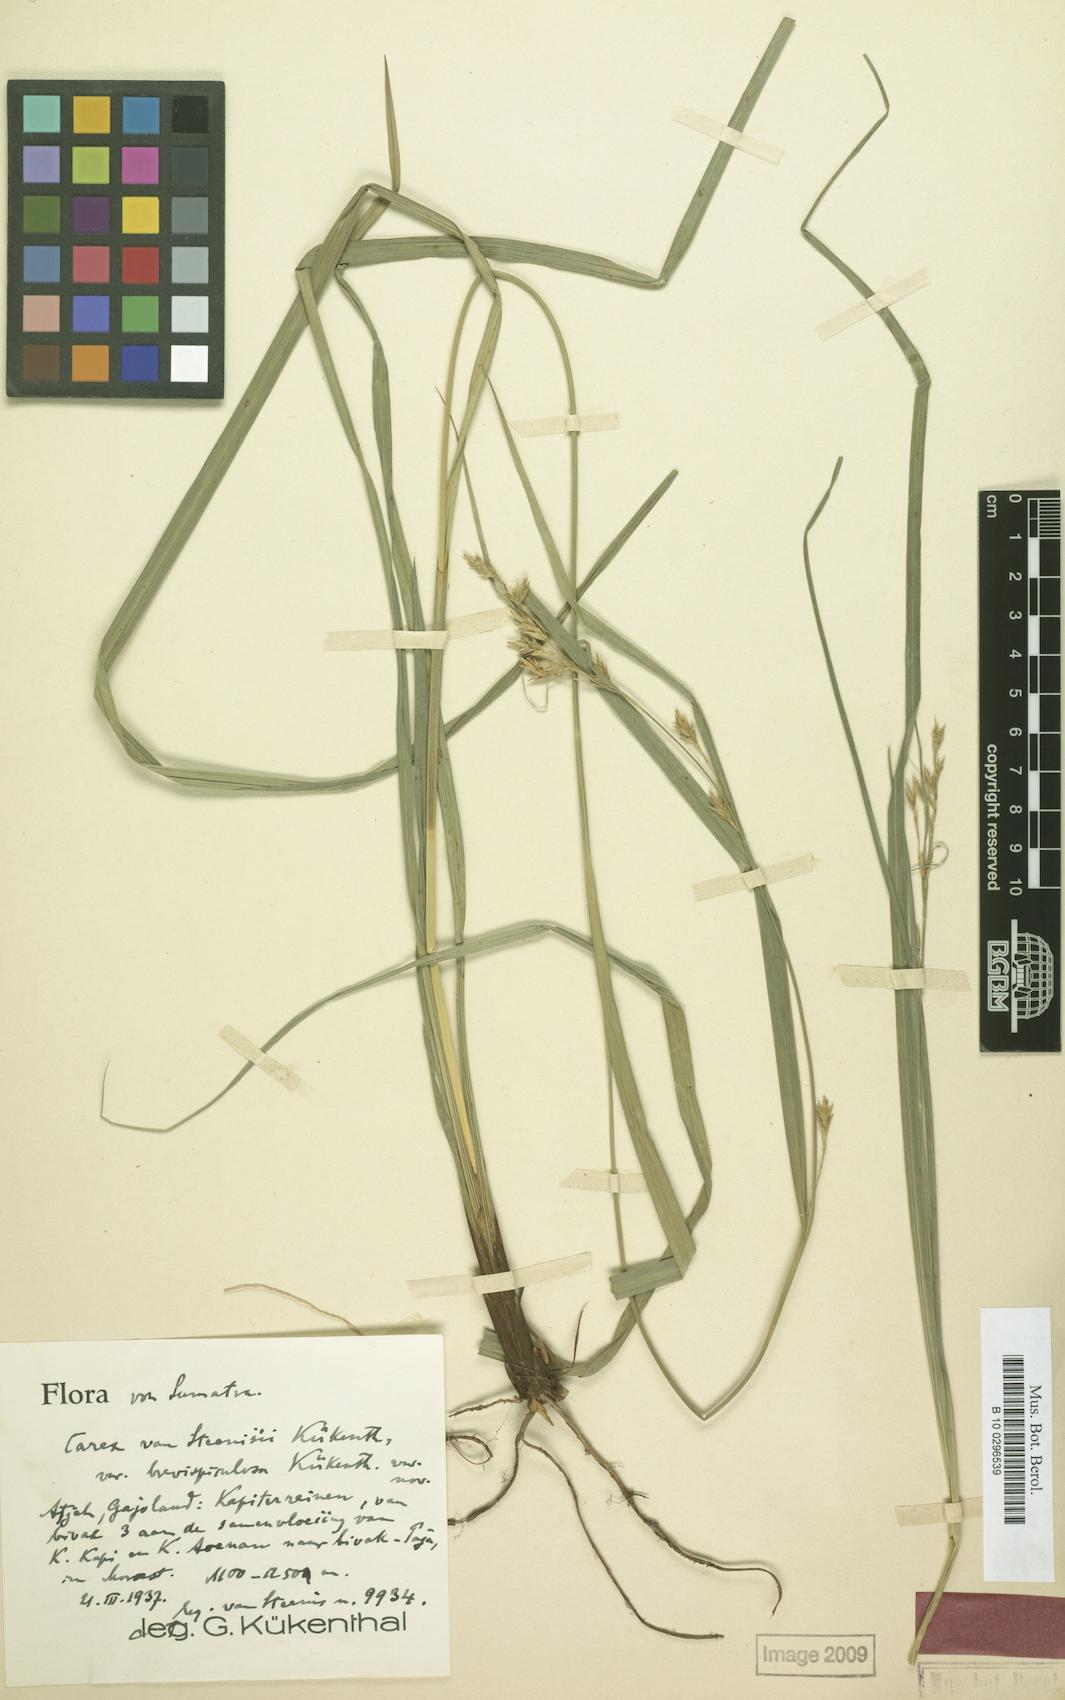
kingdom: Plantae
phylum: Tracheophyta
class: Liliopsida
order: Poales
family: Cyperaceae
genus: Carex
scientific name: Carex perakensis
